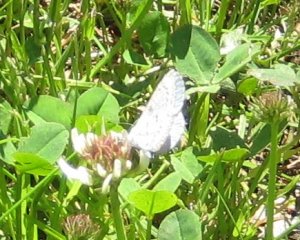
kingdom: Animalia
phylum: Arthropoda
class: Insecta
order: Lepidoptera
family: Lycaenidae
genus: Celastrina
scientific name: Celastrina serotina
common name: Cherry Gall Azure
